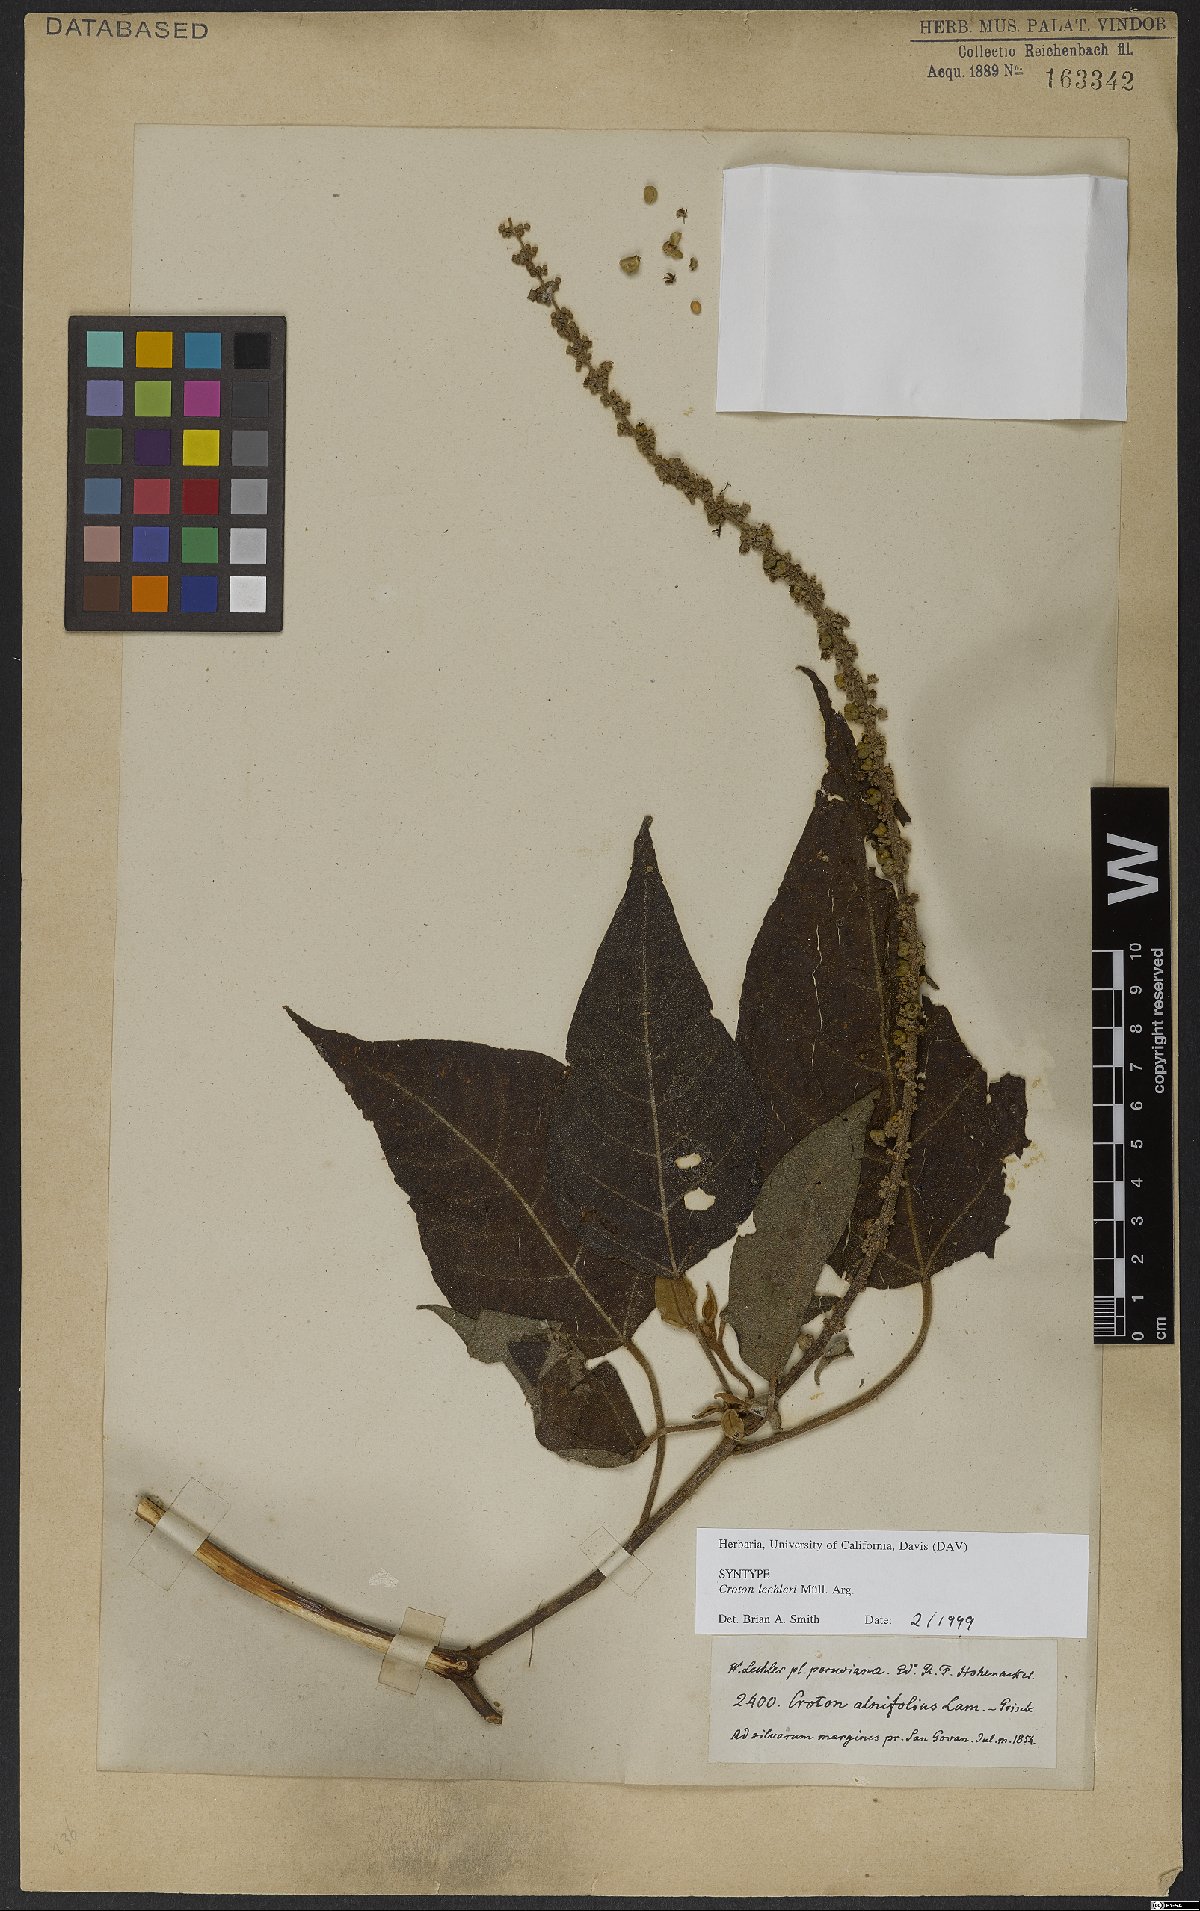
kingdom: Plantae
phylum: Tracheophyta
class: Magnoliopsida
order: Malpighiales
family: Euphorbiaceae
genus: Croton
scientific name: Croton lechleri
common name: Dragon's blood
